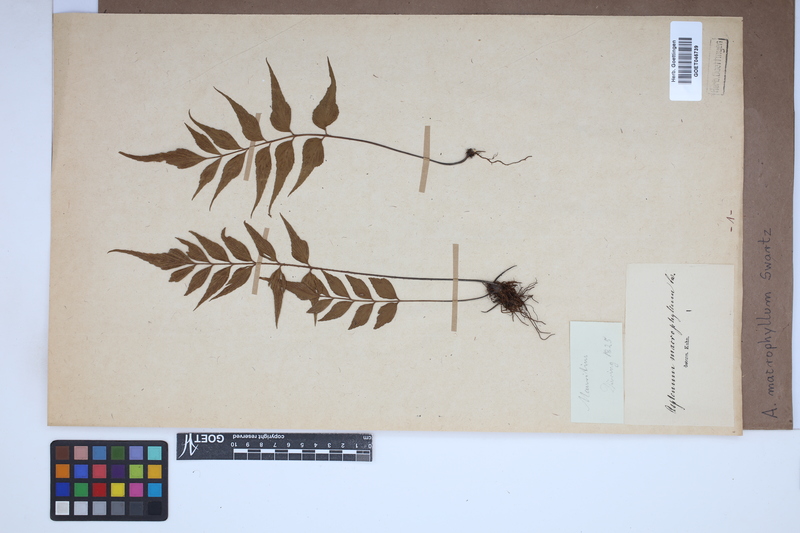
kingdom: Plantae
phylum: Tracheophyta
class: Polypodiopsida
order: Polypodiales
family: Aspleniaceae
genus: Asplenium
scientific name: Asplenium macrophyllum
